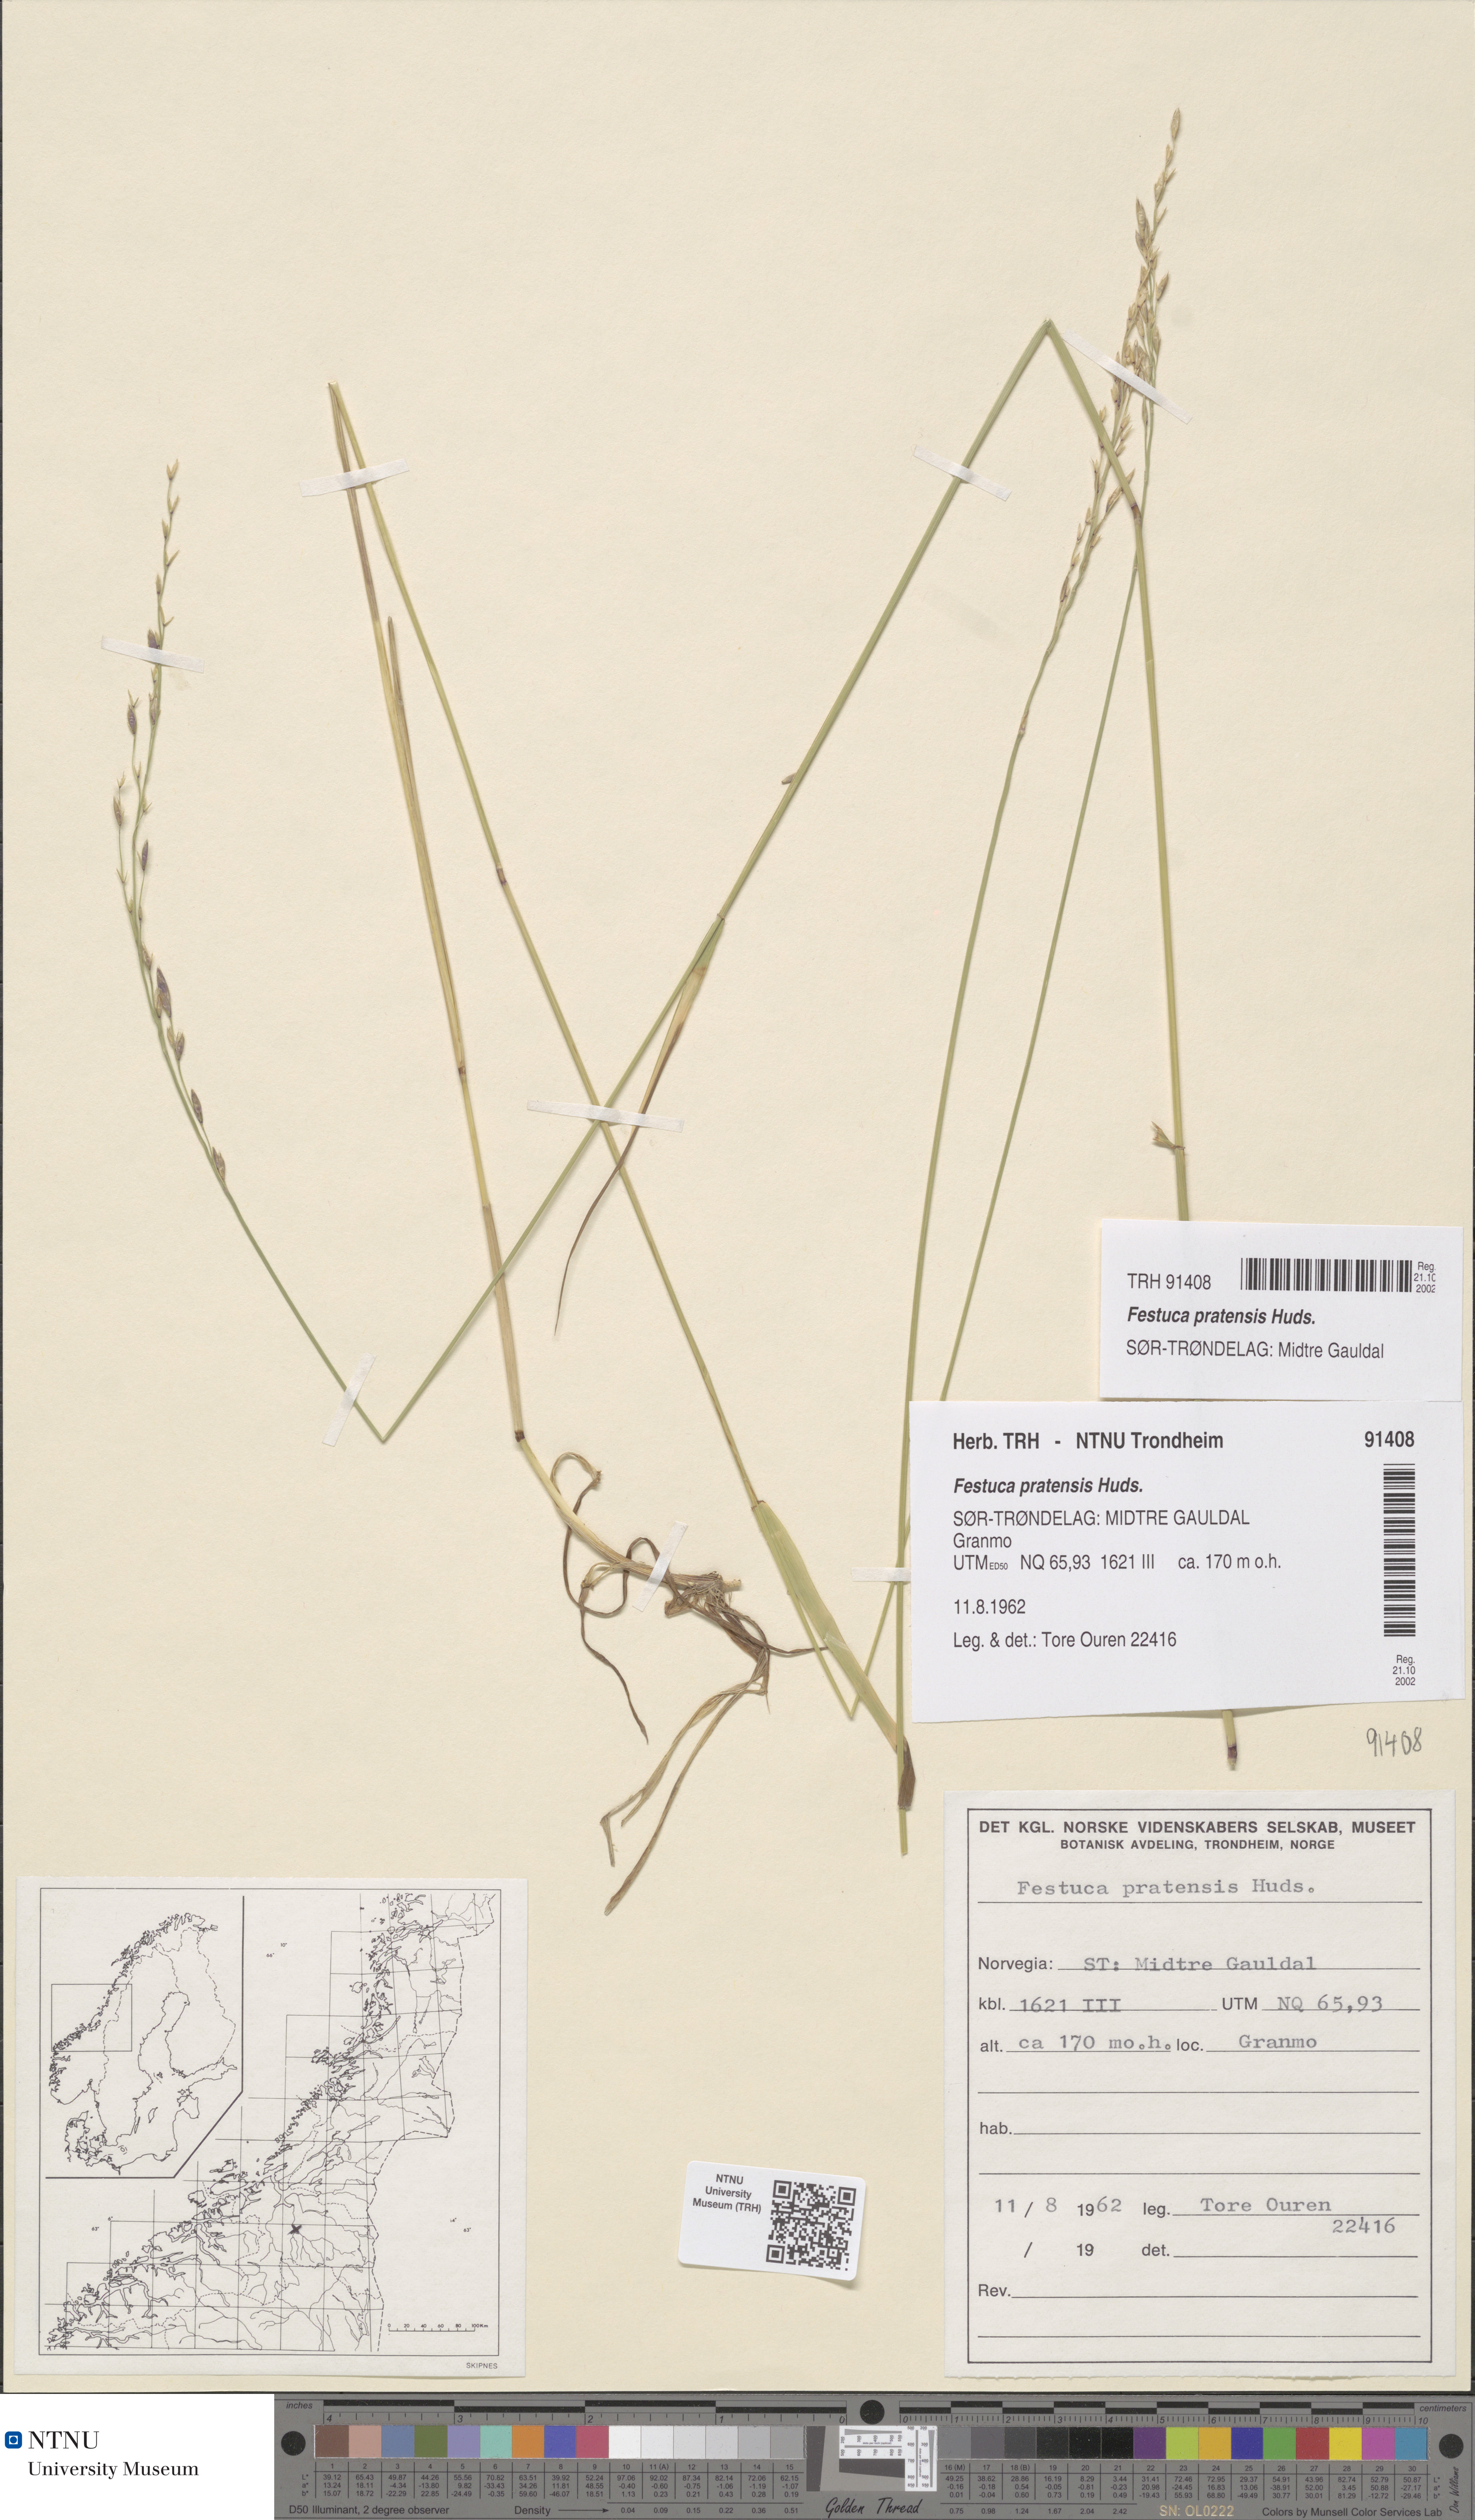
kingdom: Plantae
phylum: Tracheophyta
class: Liliopsida
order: Poales
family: Poaceae
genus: Lolium
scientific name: Lolium pratense
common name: Dover grass
